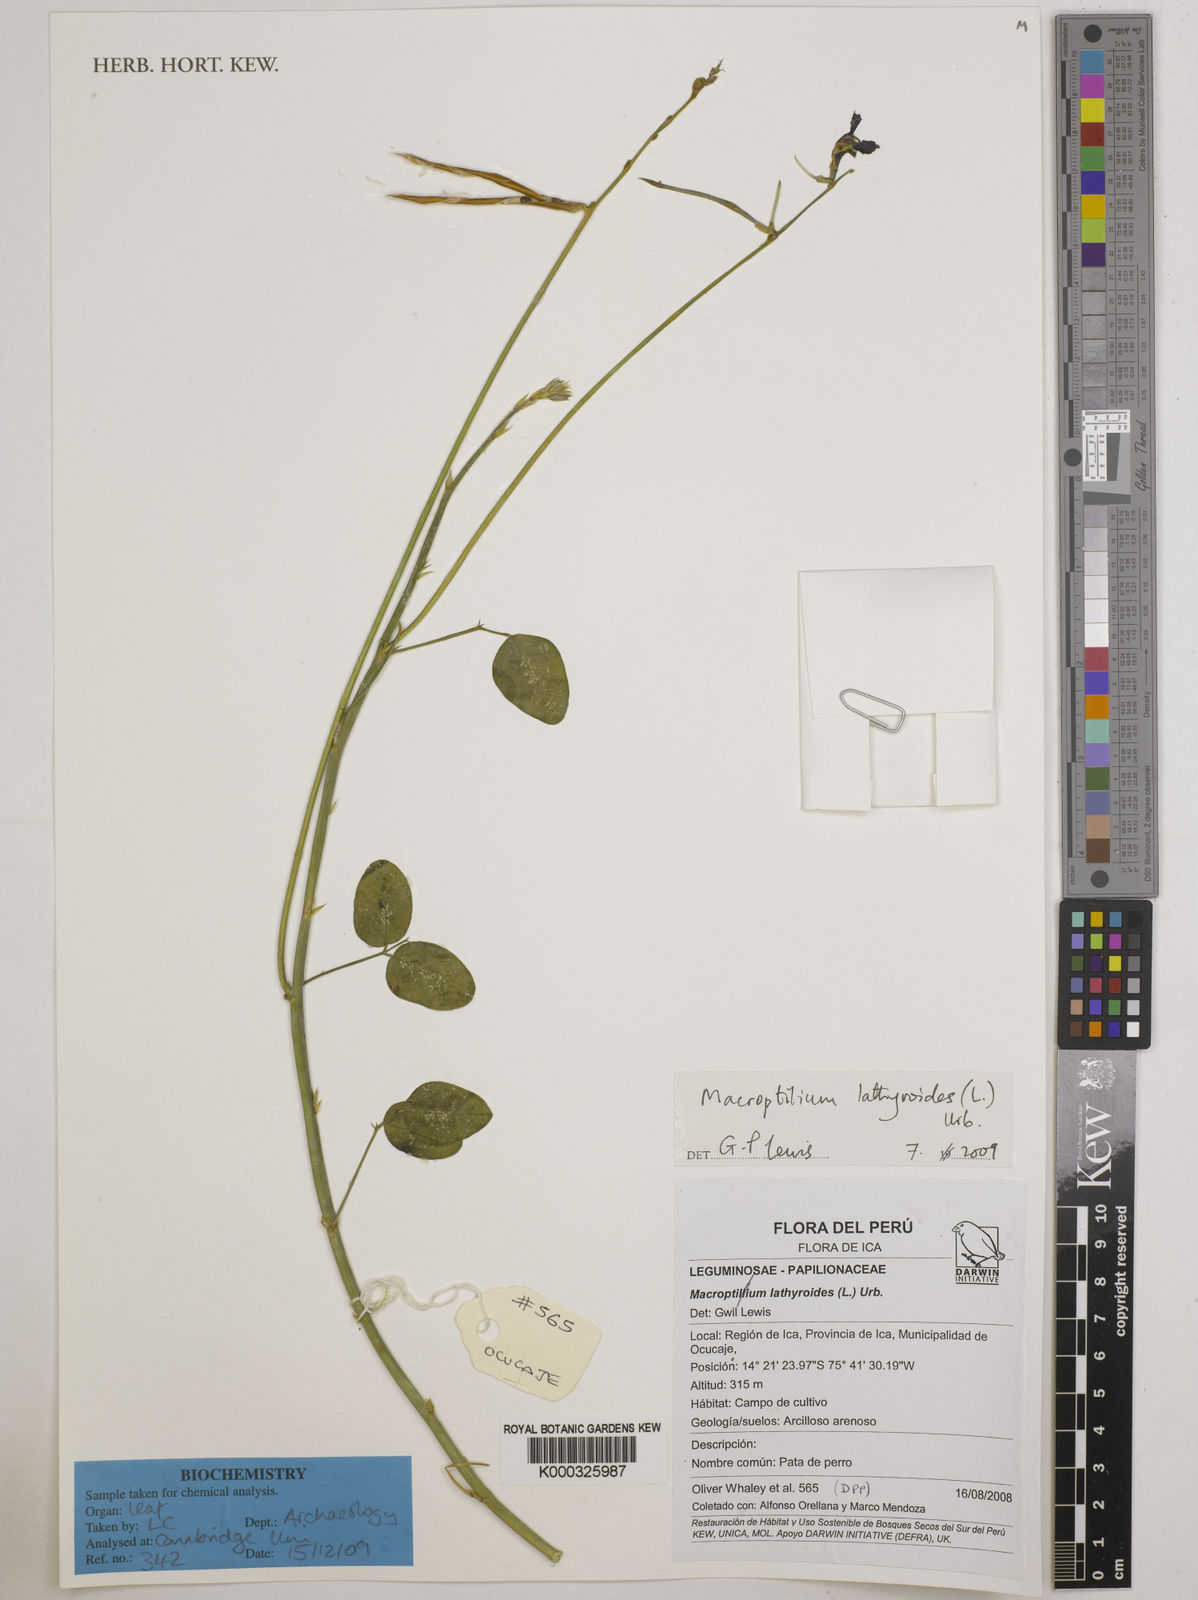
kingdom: Plantae
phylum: Tracheophyta
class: Magnoliopsida
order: Fabales
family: Fabaceae
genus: Macroptilium
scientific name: Macroptilium lathyroides
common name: Wild bushbean
